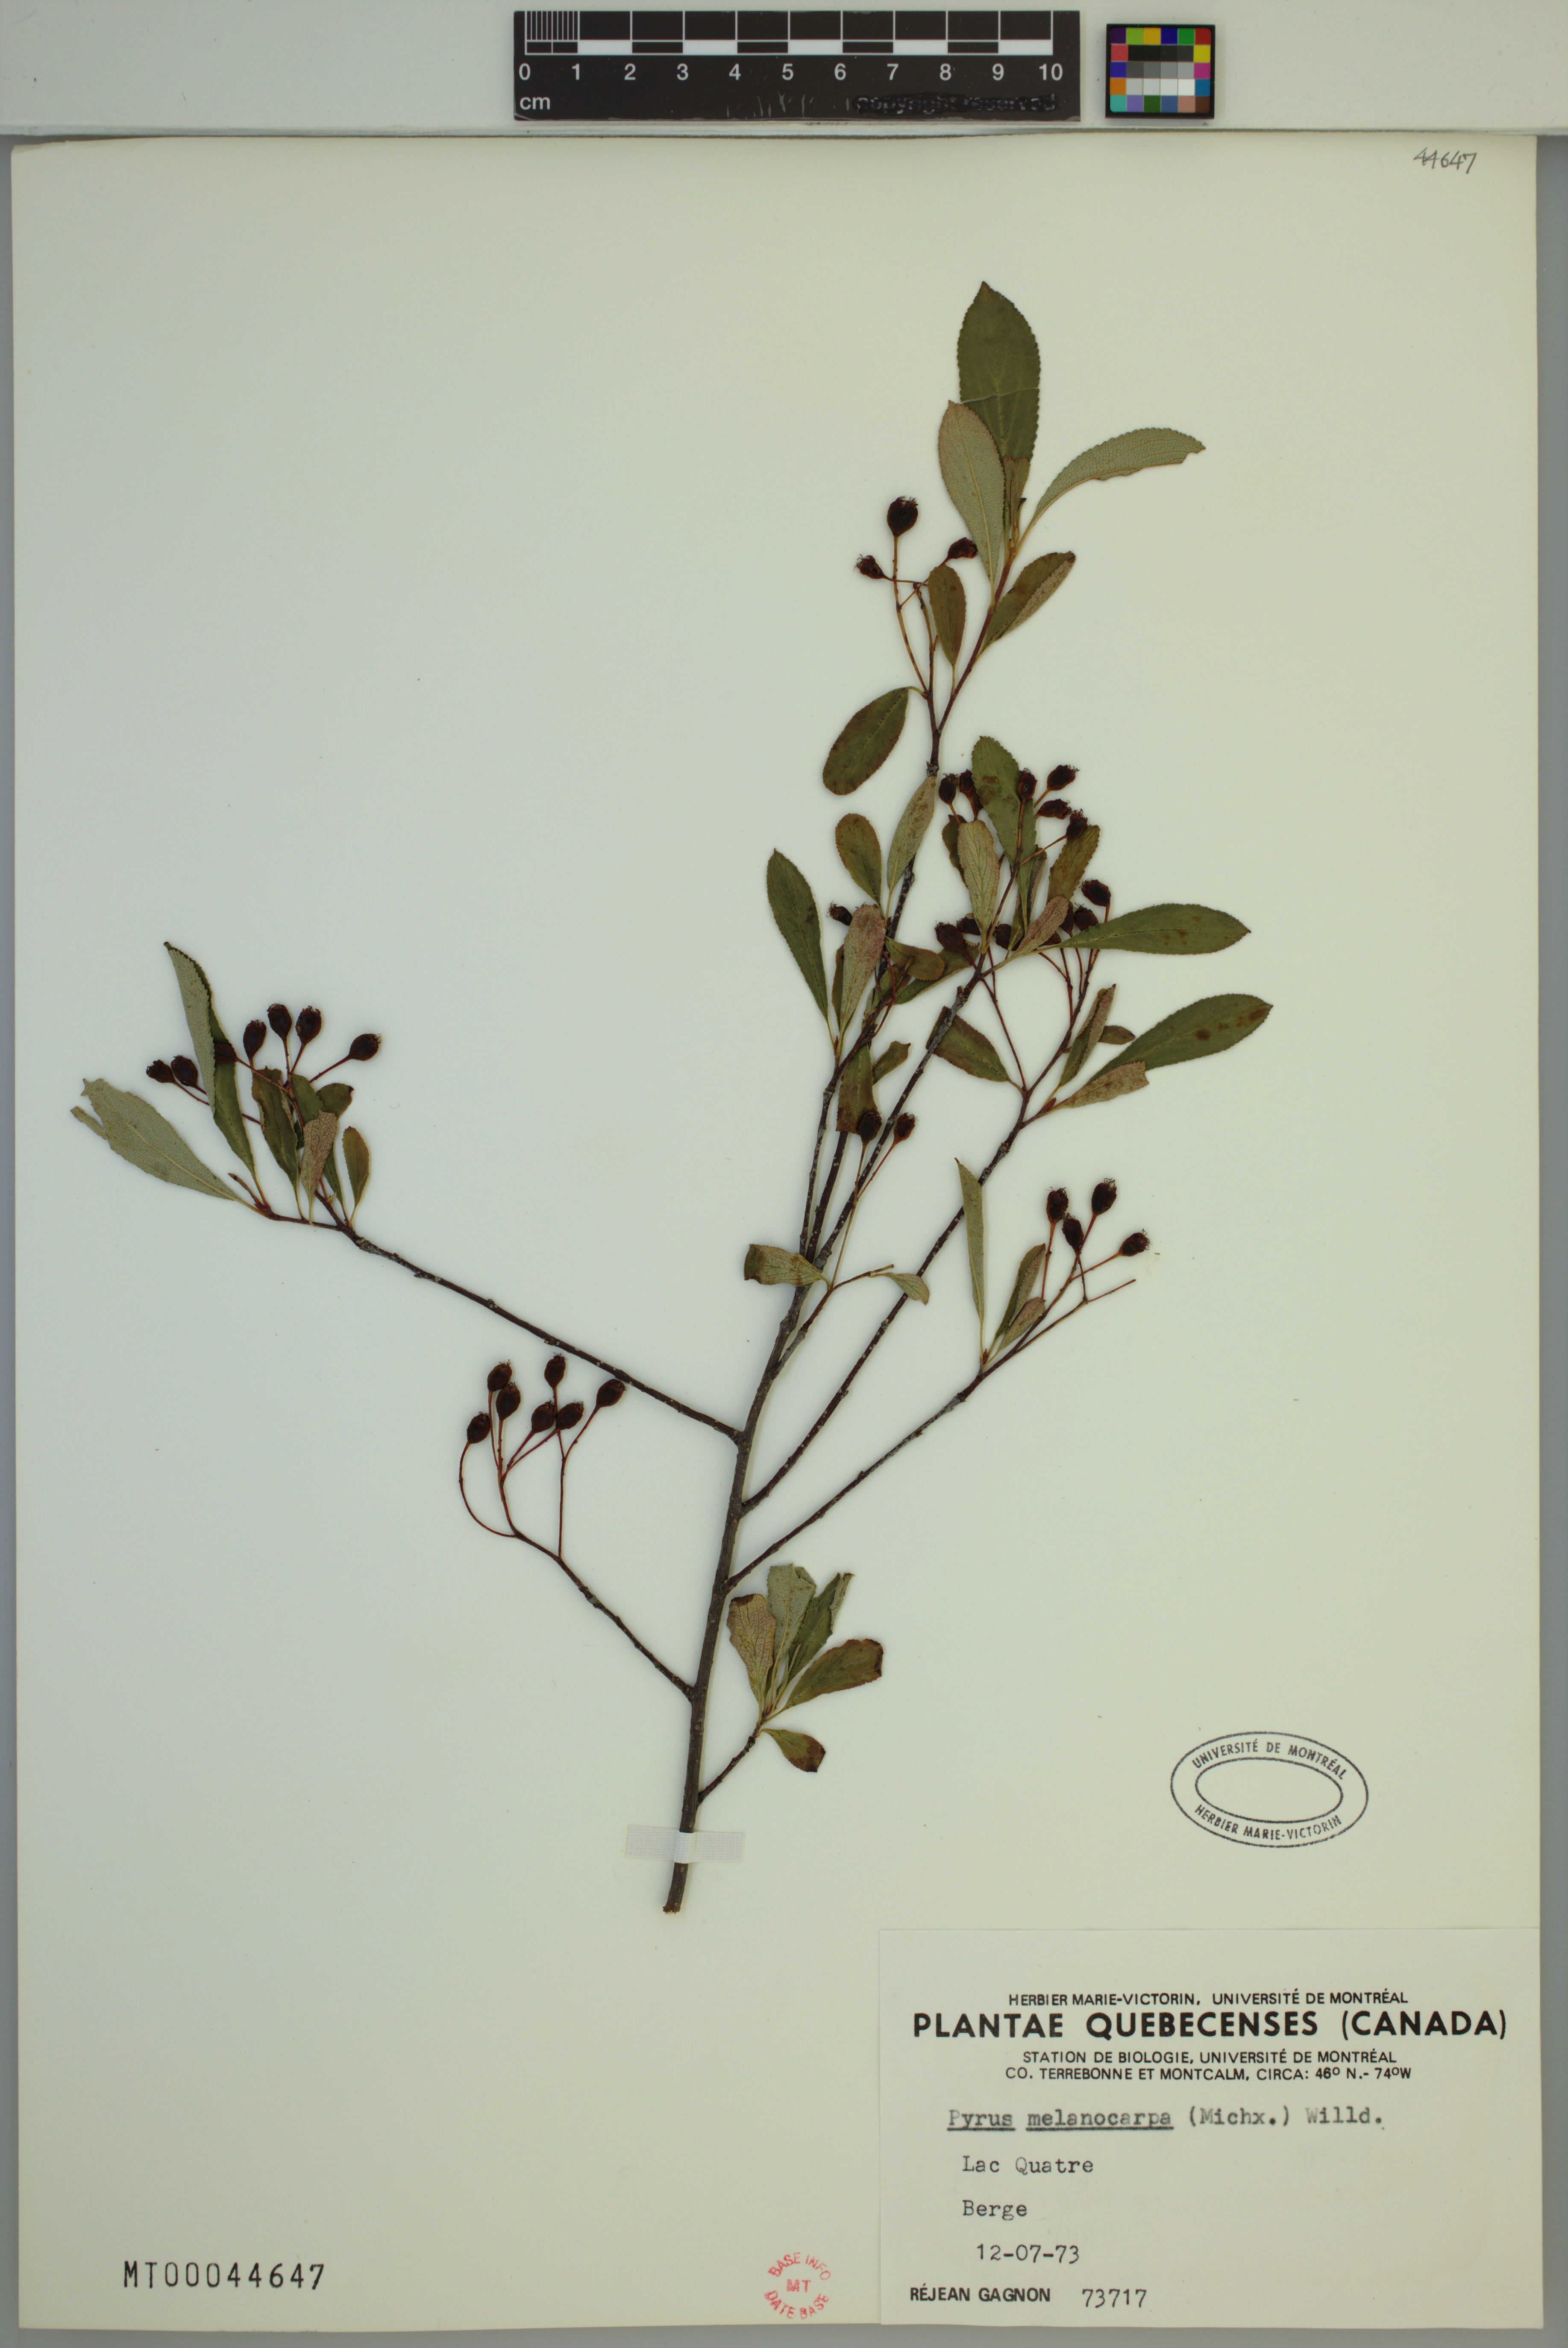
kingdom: Plantae
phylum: Tracheophyta
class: Magnoliopsida
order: Rosales
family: Rosaceae
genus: Aronia
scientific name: Aronia melanocarpa
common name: Black chokeberry
